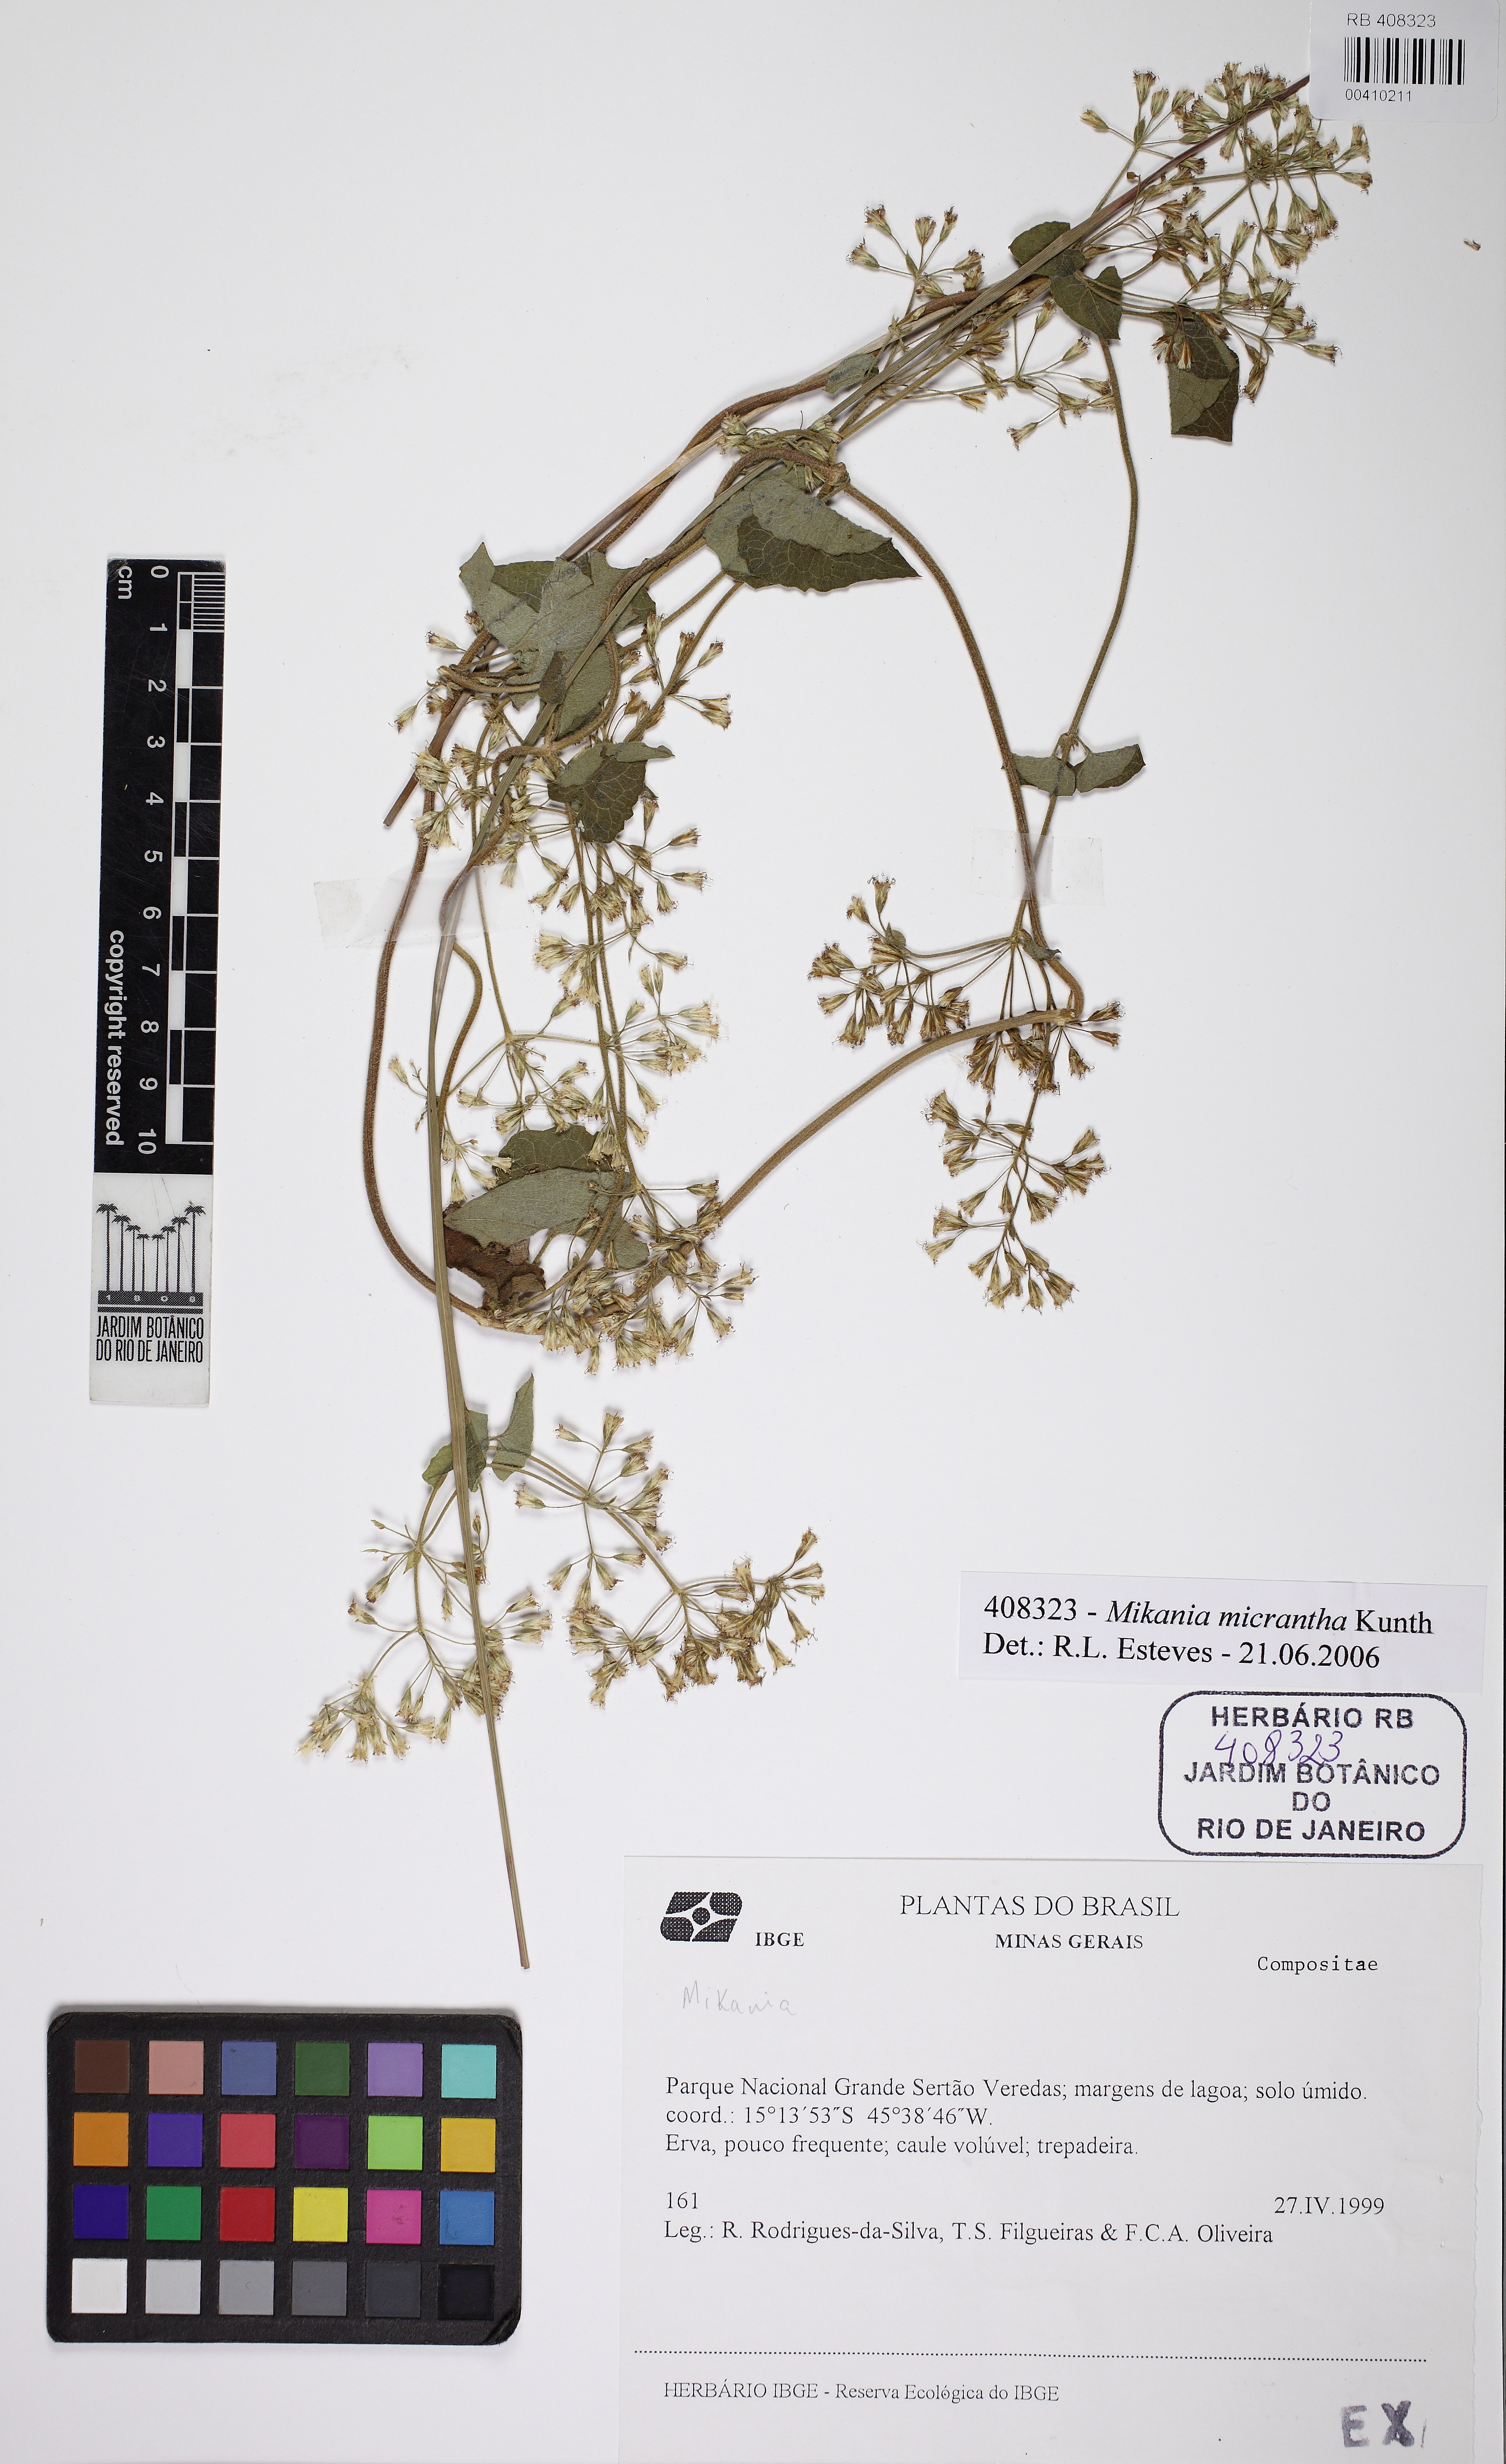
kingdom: Plantae
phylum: Tracheophyta
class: Magnoliopsida
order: Asterales
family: Asteraceae
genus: Mikania
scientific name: Mikania micrantha
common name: Mile-a-minute
